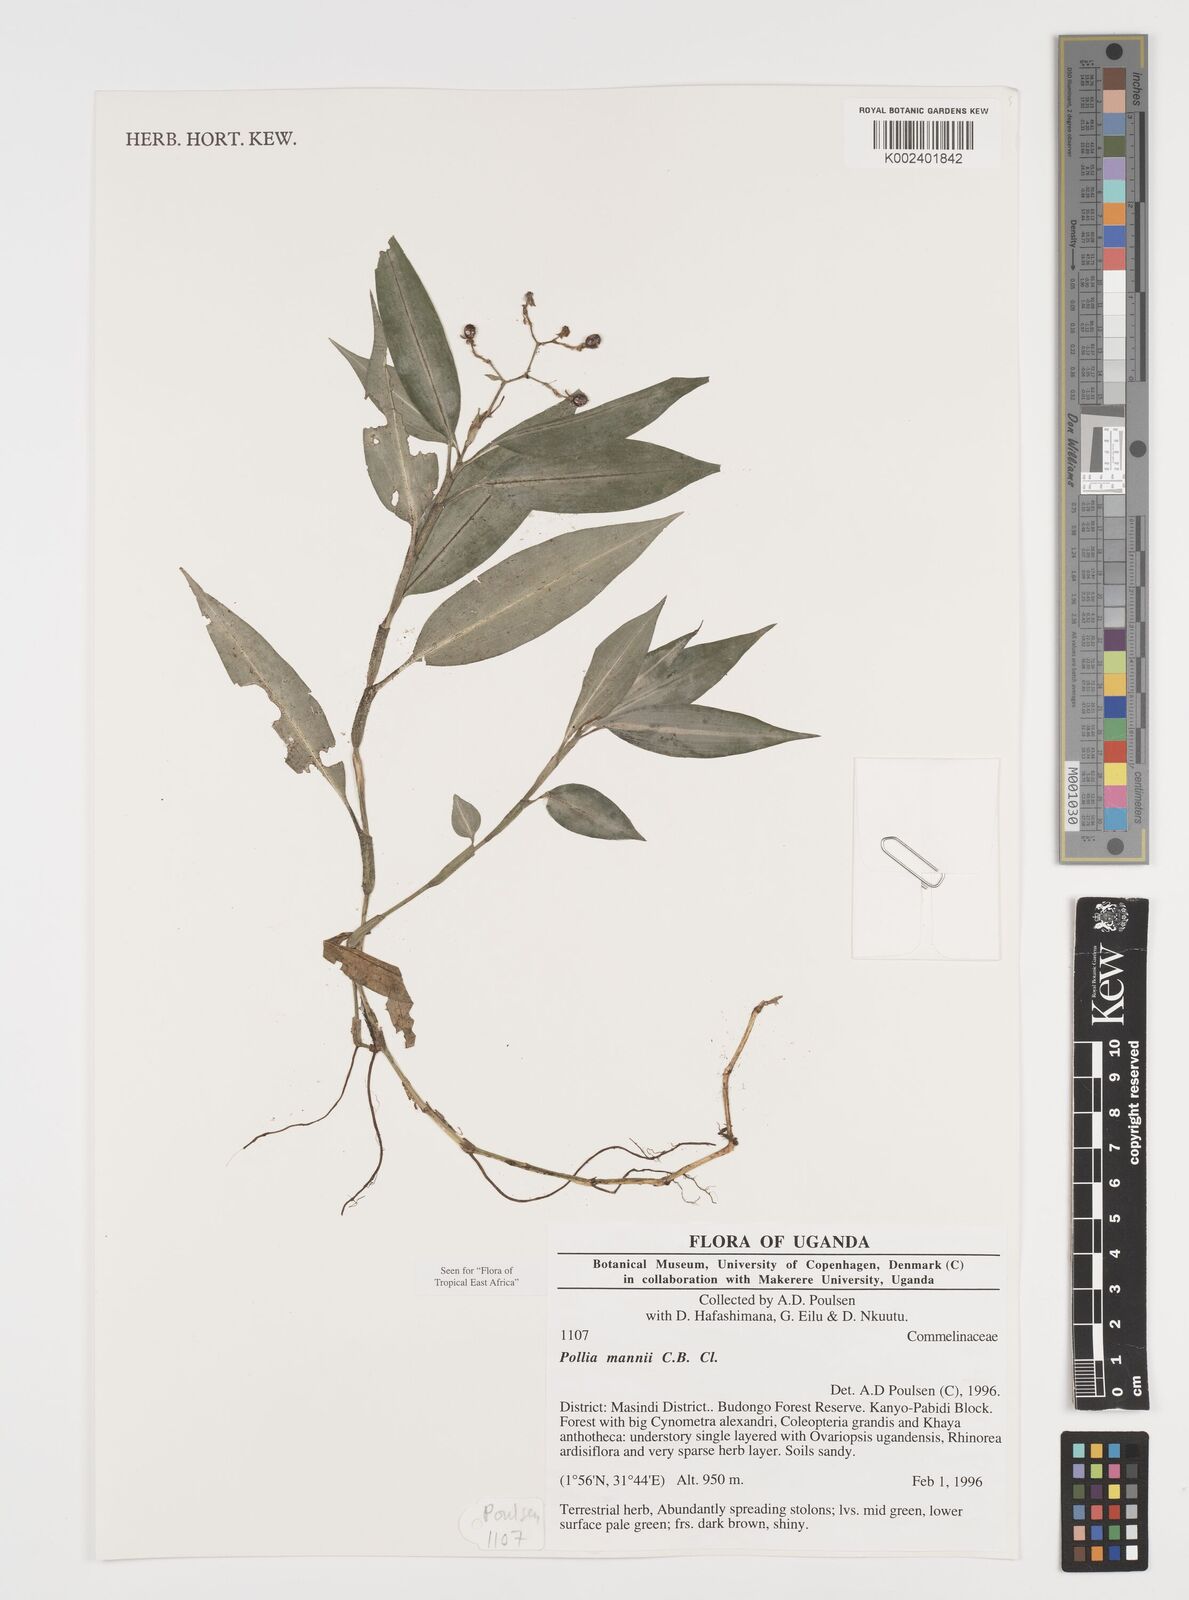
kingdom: Plantae
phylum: Tracheophyta
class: Liliopsida
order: Commelinales
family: Commelinaceae
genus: Pollia
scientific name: Pollia mannii
